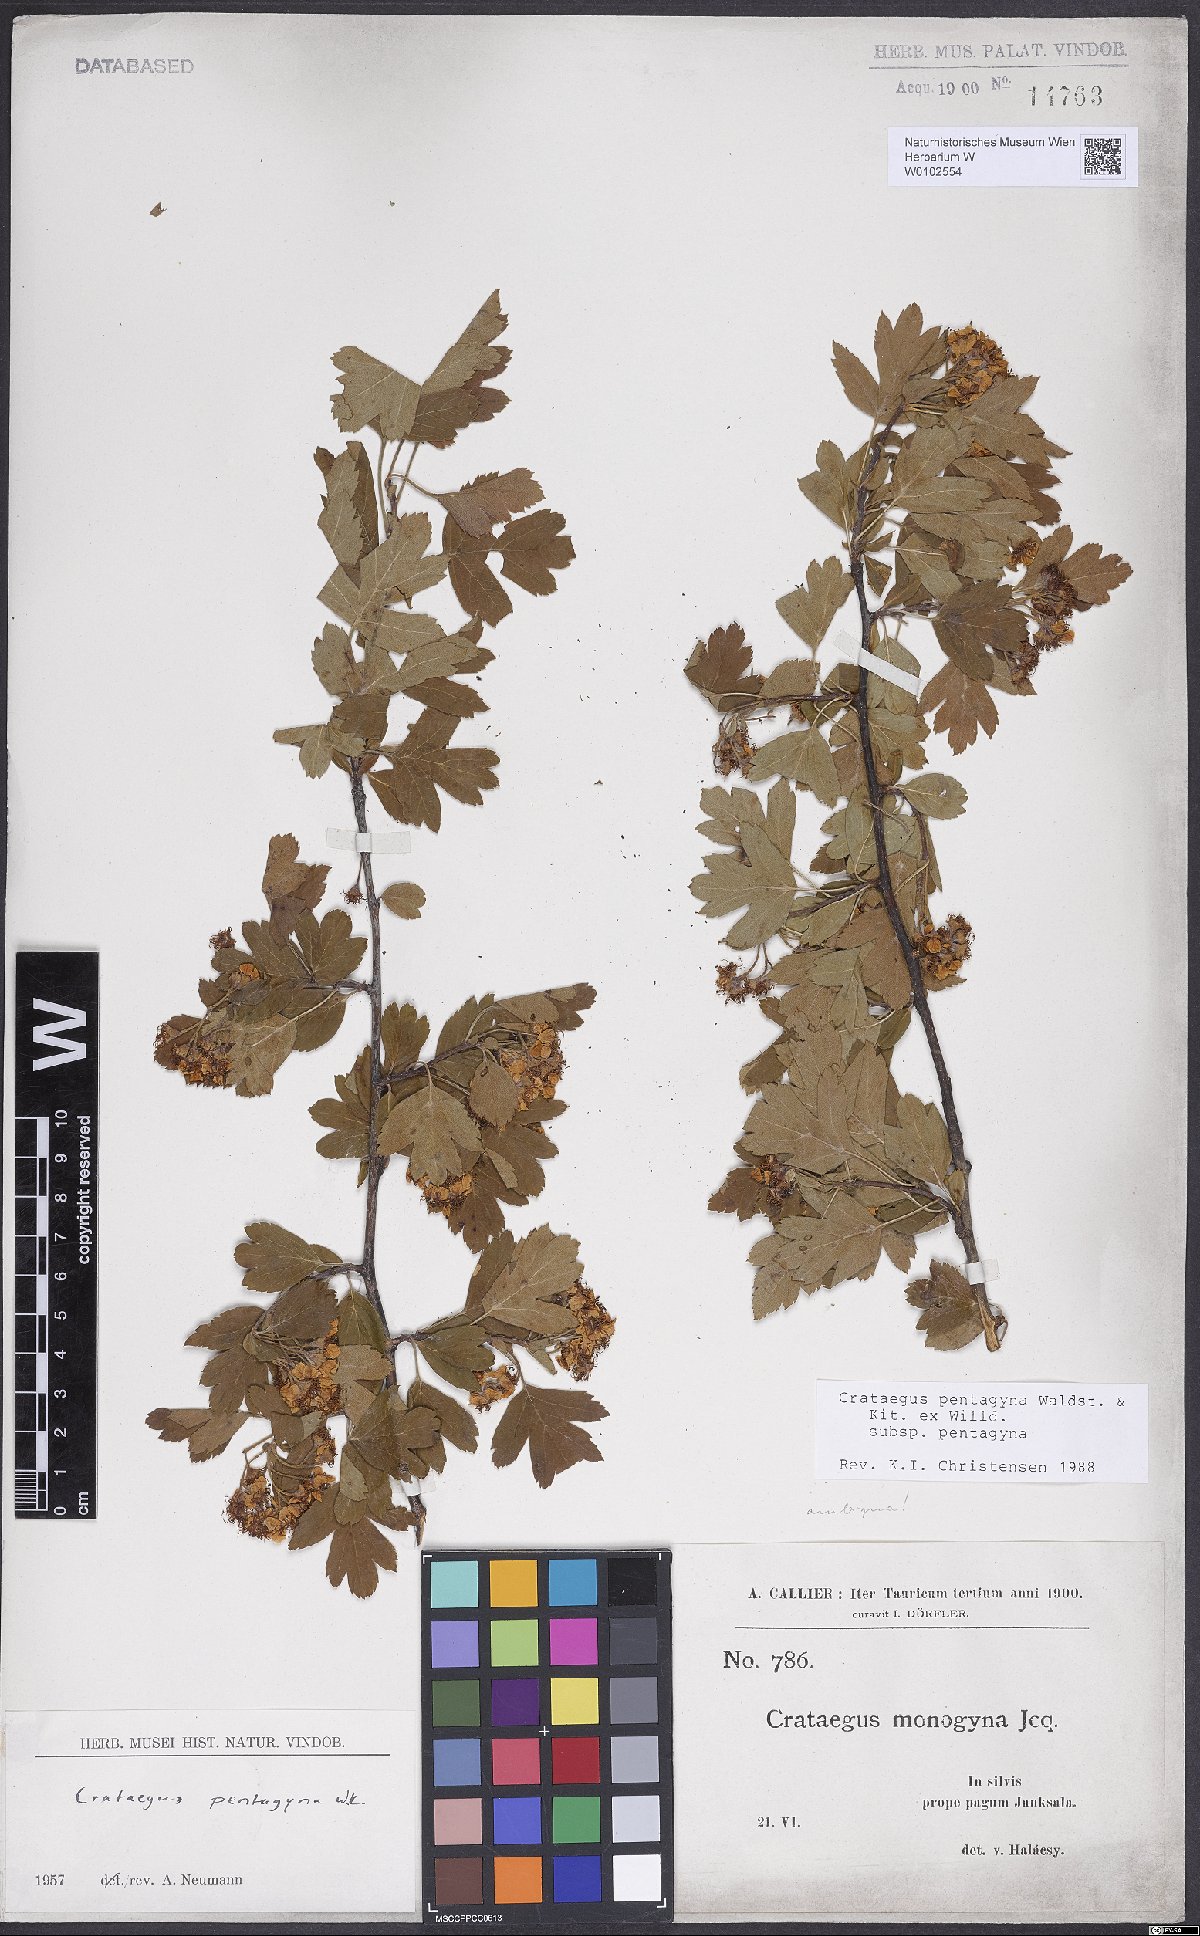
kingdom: Plantae
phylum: Tracheophyta
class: Magnoliopsida
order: Rosales
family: Rosaceae
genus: Crataegus
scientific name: Crataegus pentagyna
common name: Small-flowered black hawthorn
